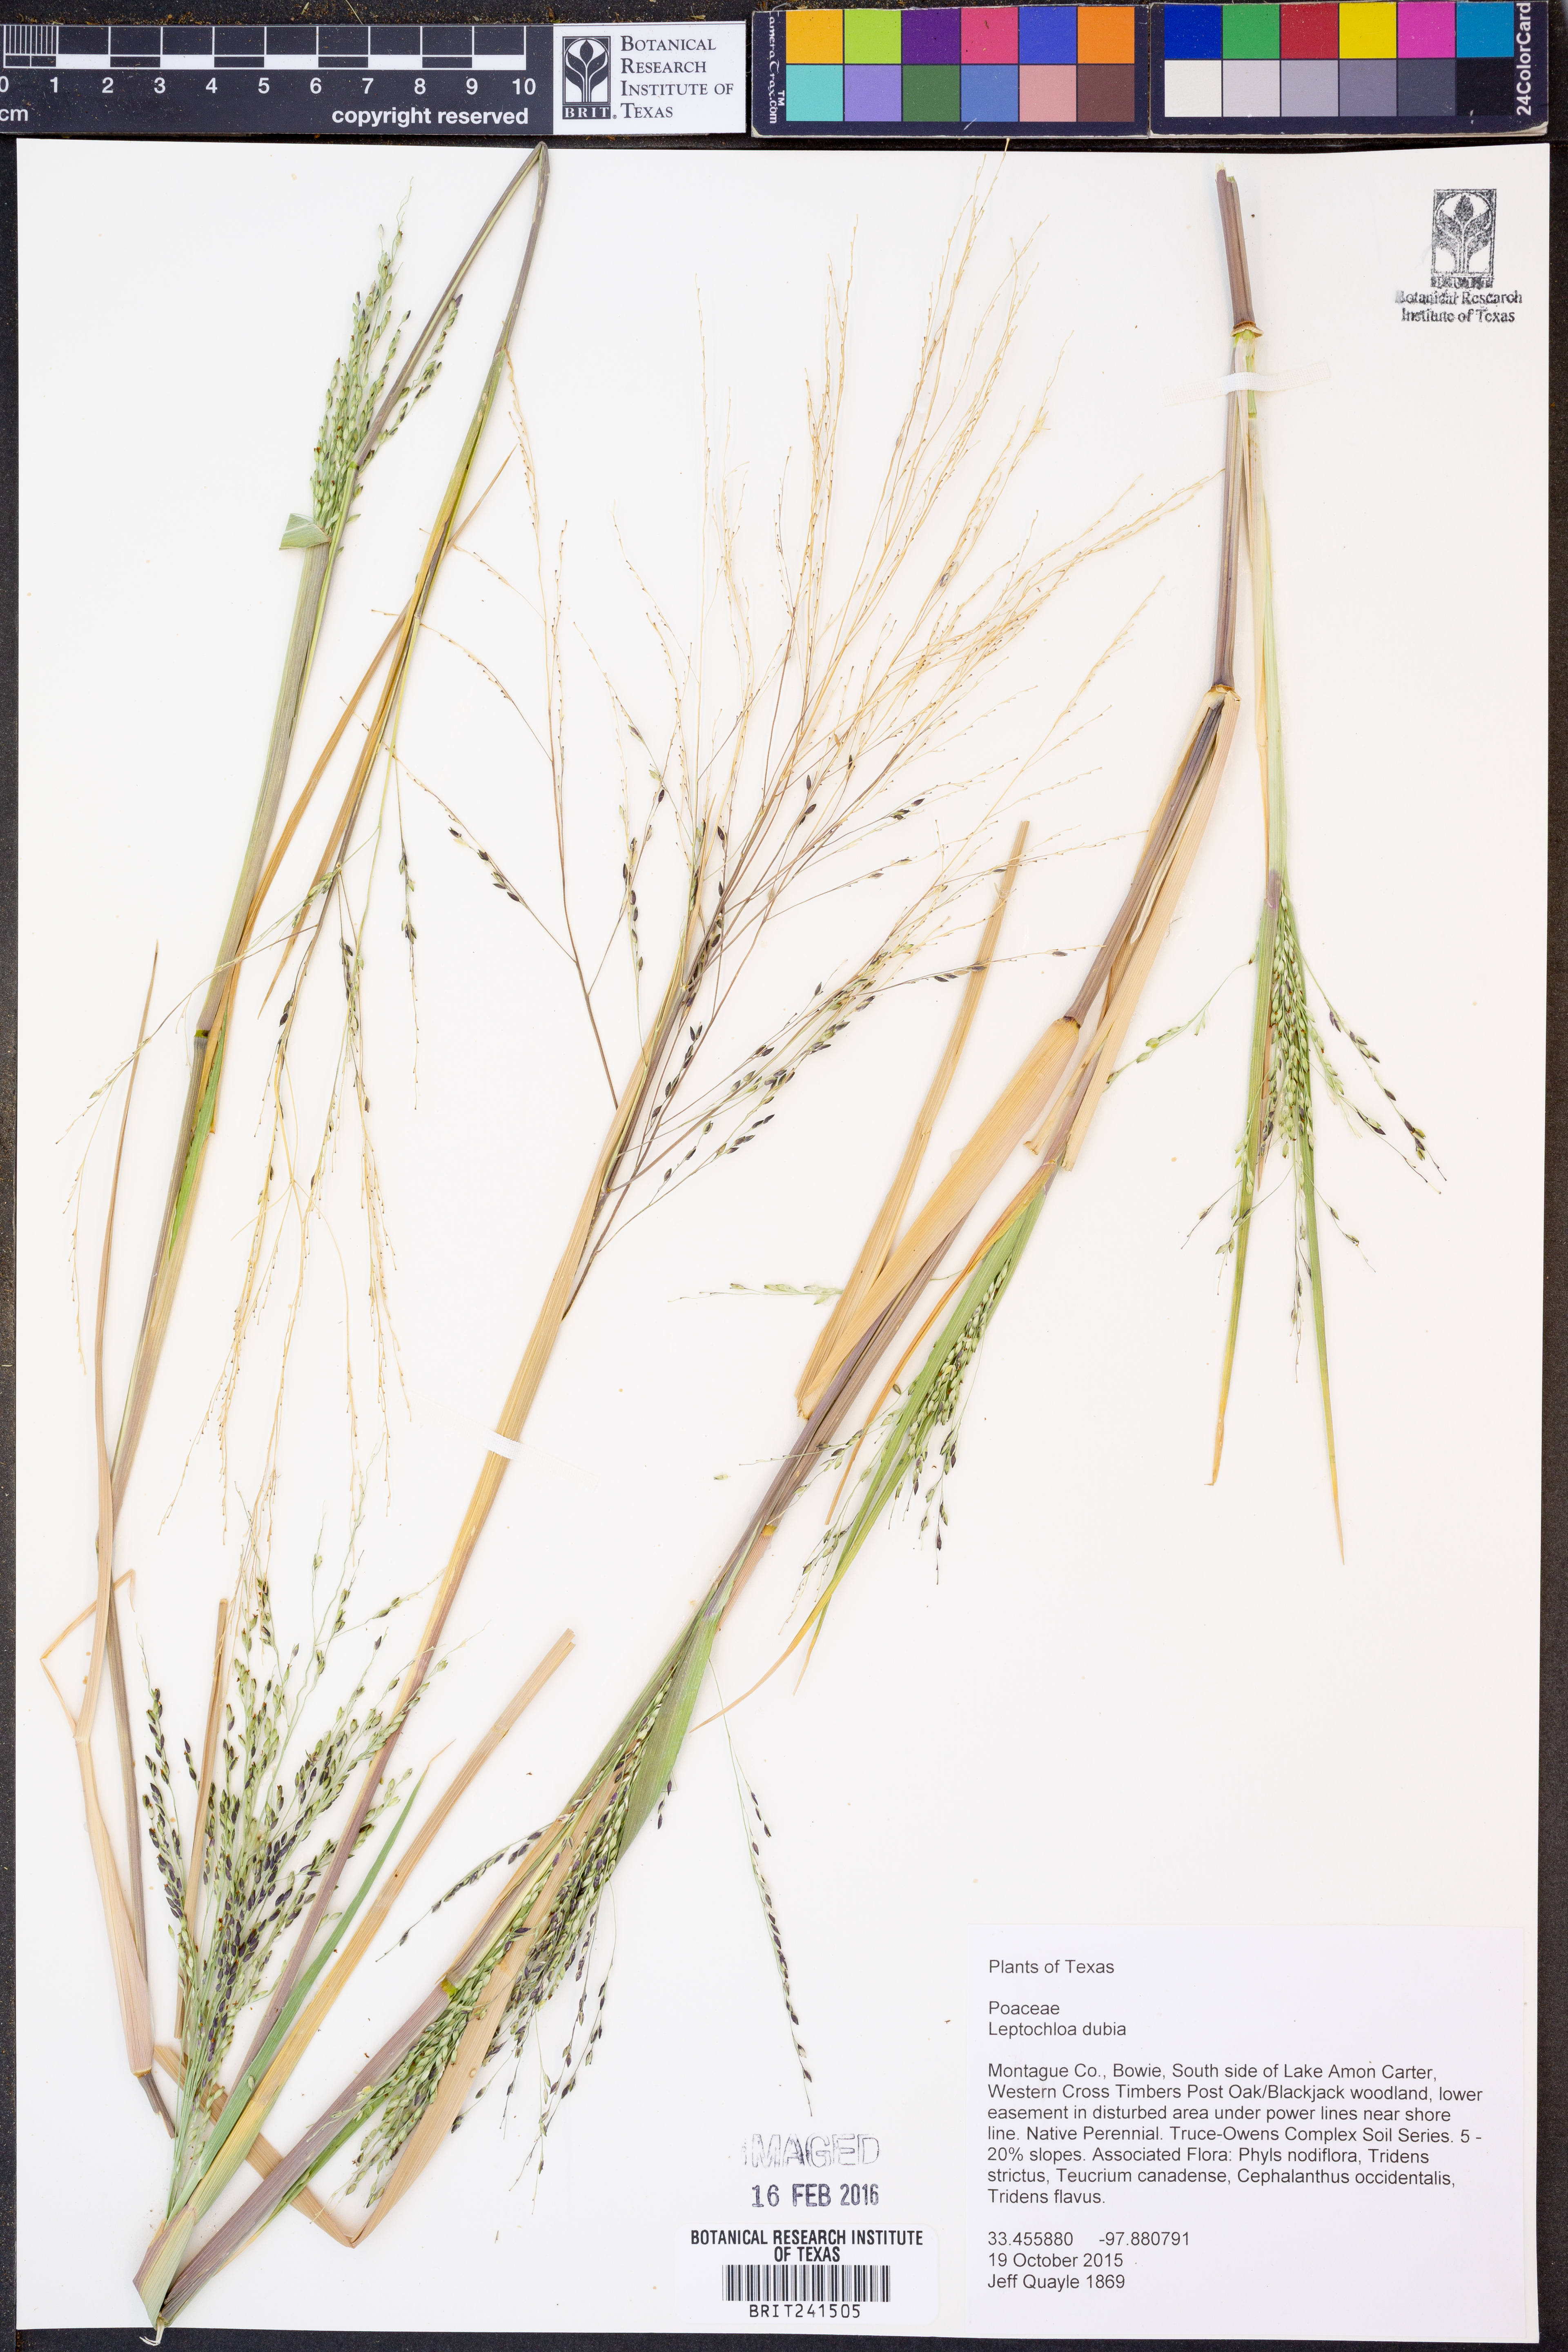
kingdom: Plantae
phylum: Tracheophyta
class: Liliopsida
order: Poales
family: Poaceae
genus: Disakisperma
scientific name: Disakisperma dubium
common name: Green sprangletop
